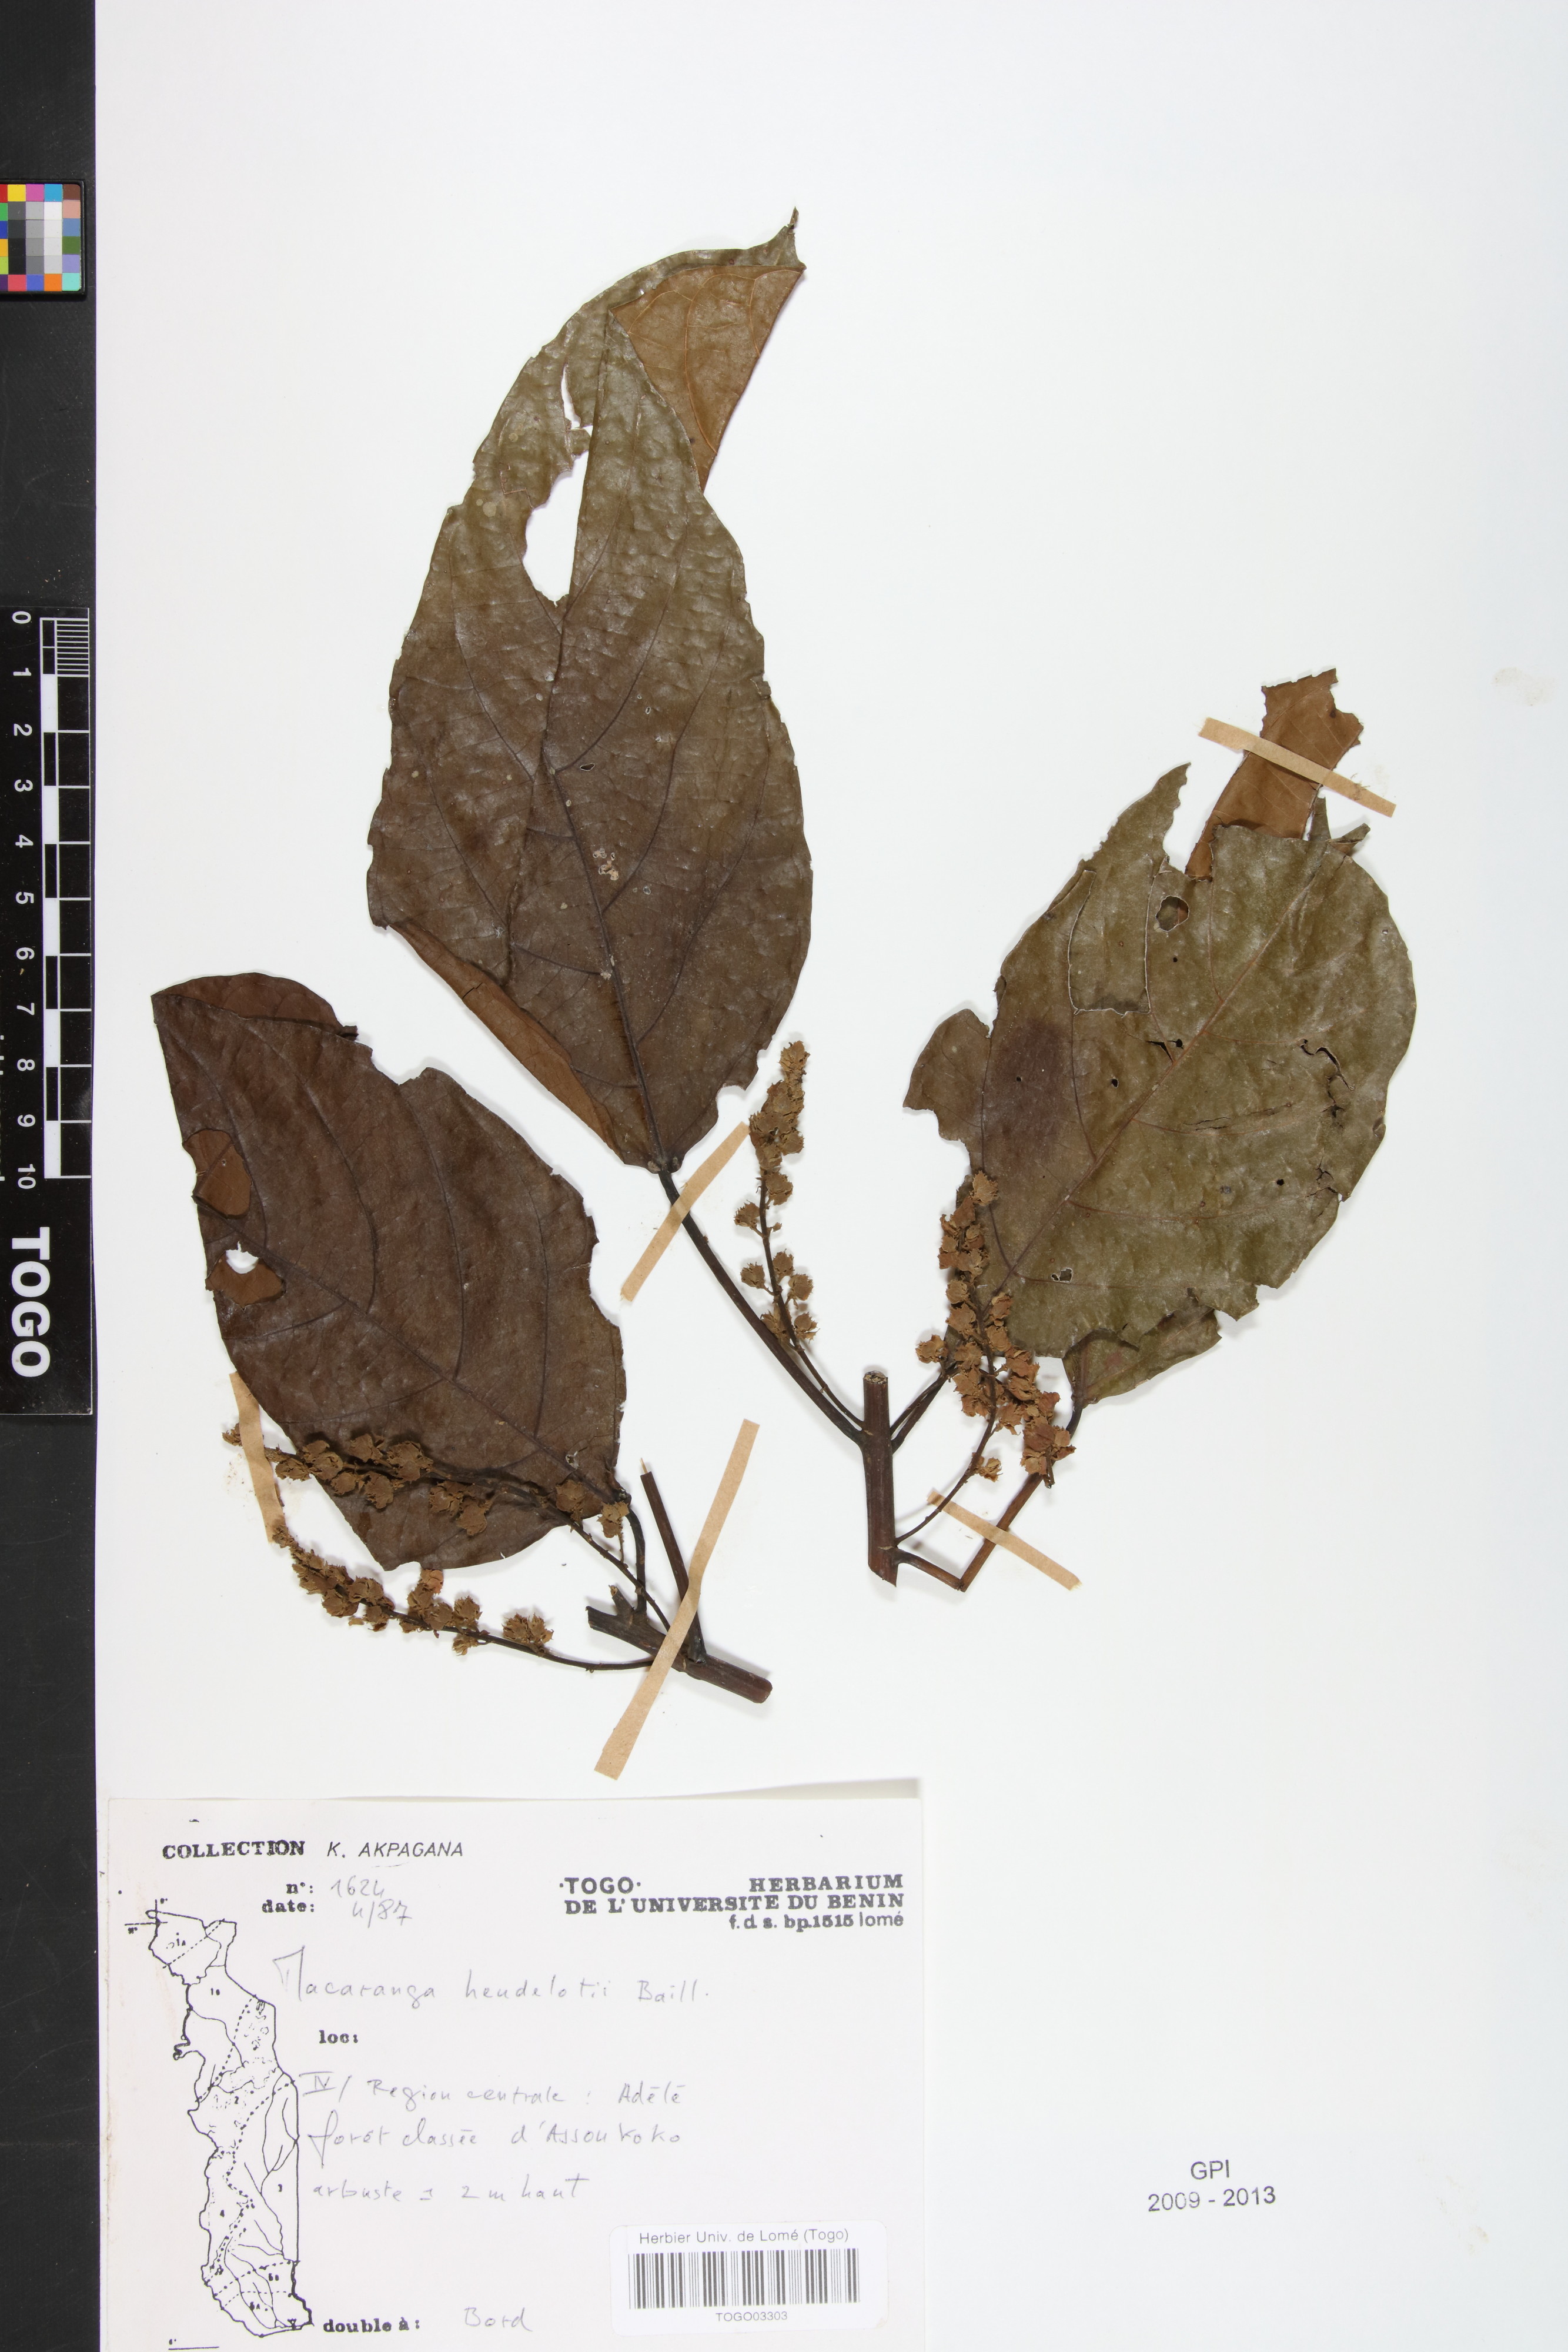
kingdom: Plantae
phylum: Tracheophyta
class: Magnoliopsida
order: Malpighiales
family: Euphorbiaceae
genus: Macaranga
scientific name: Macaranga heudelotii
